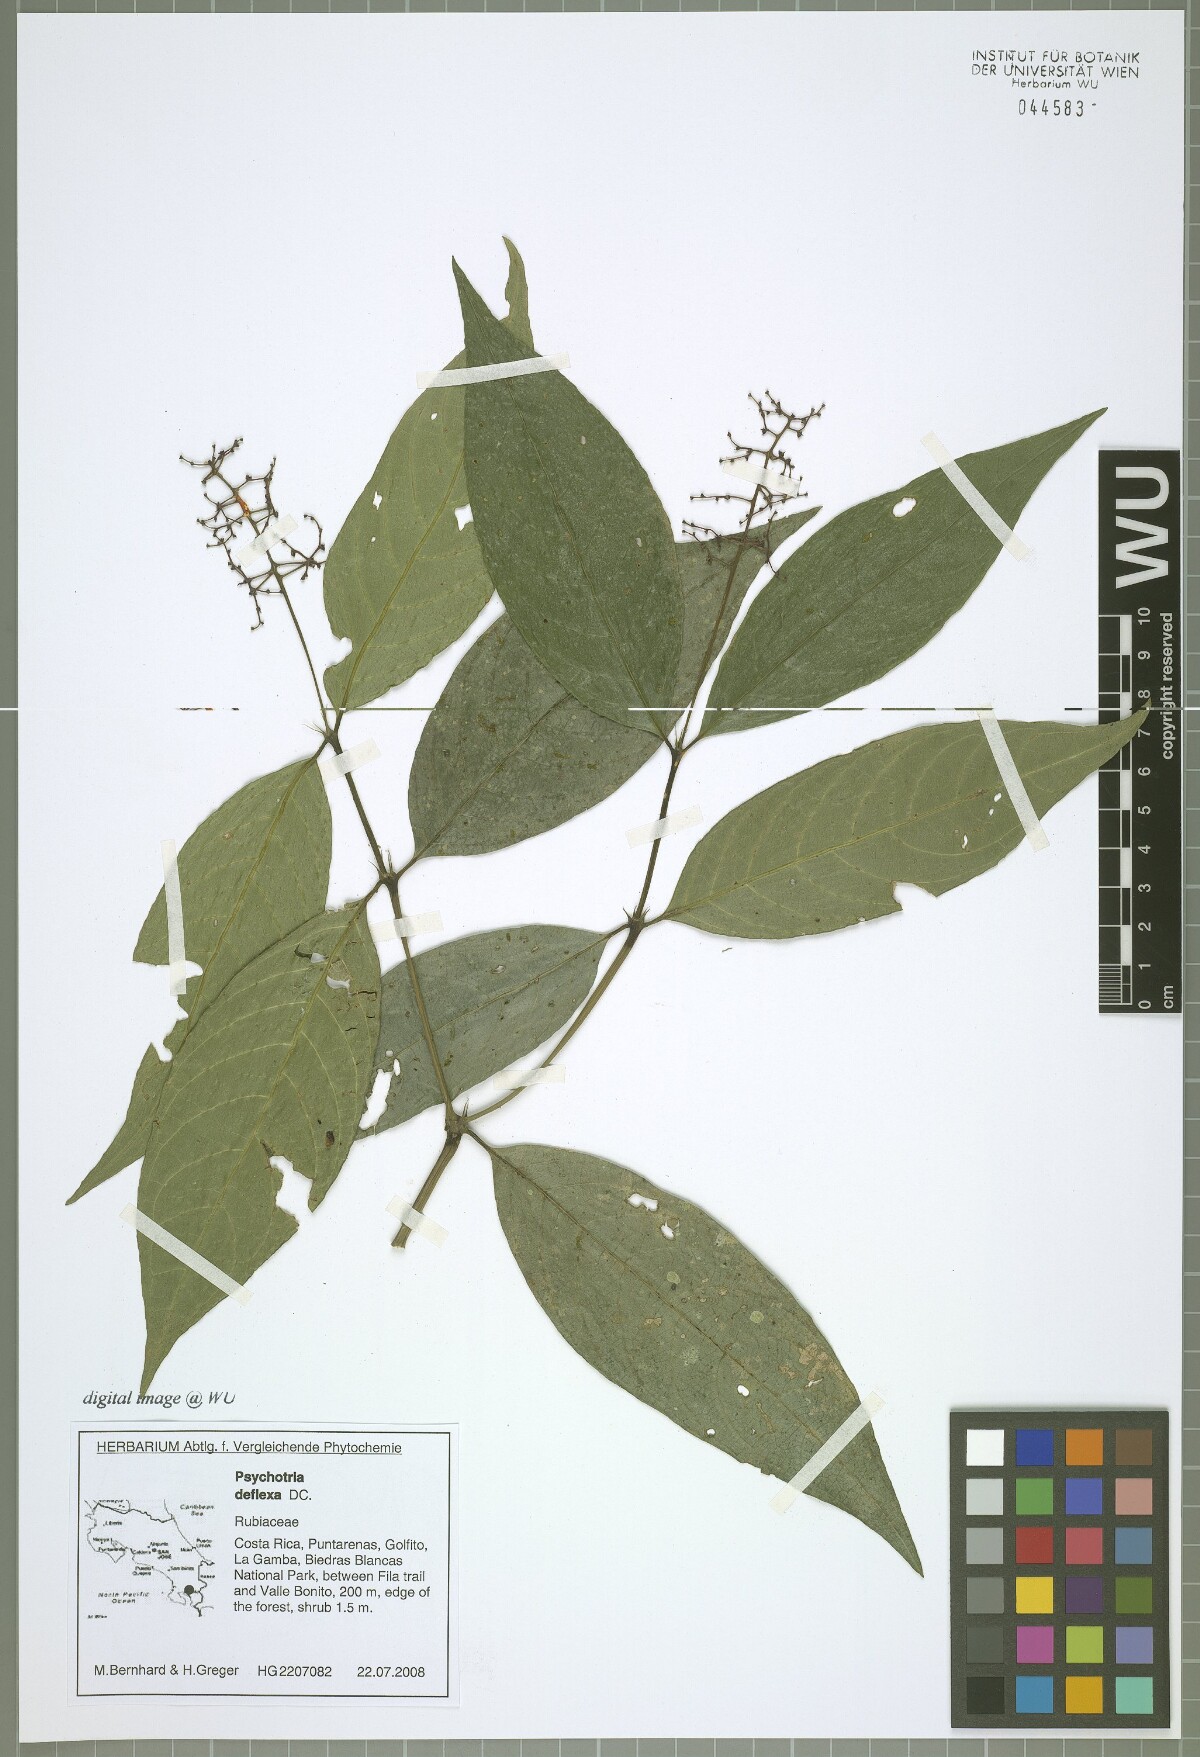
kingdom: Plantae
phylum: Tracheophyta
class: Magnoliopsida
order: Gentianales
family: Rubiaceae
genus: Palicourea
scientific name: Palicourea deflexa
